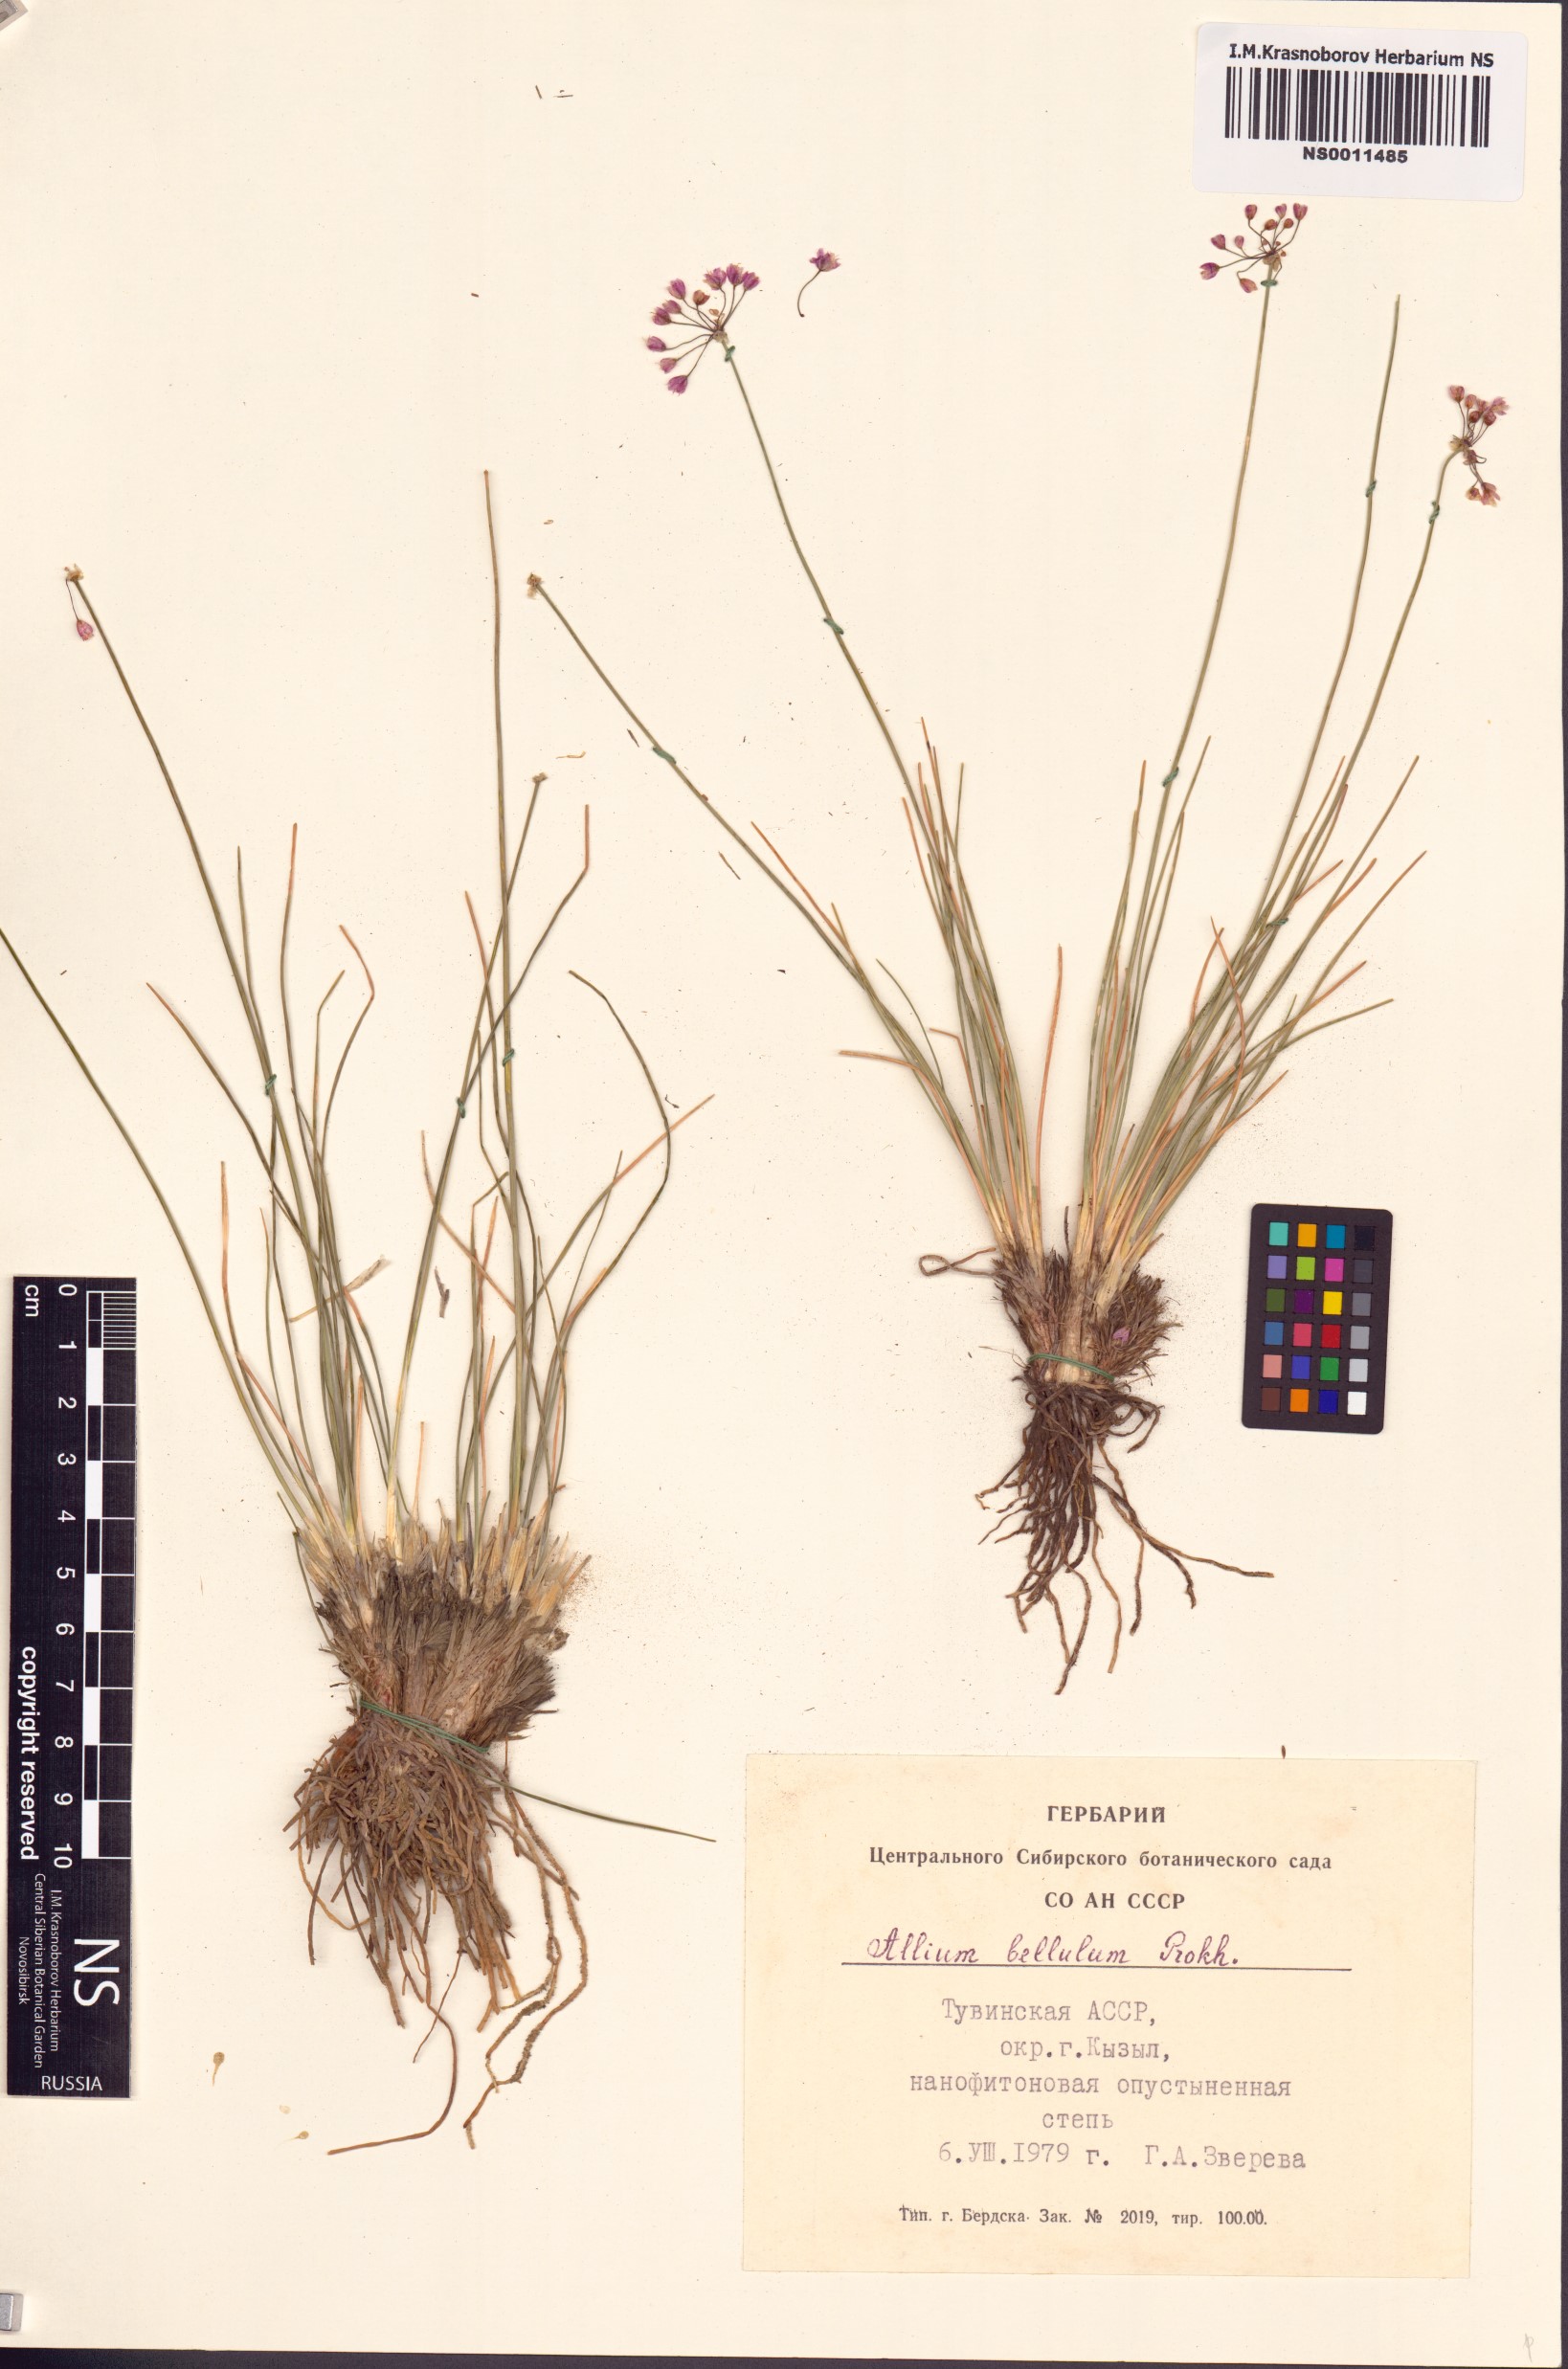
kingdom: Plantae
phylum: Tracheophyta
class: Liliopsida
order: Asparagales
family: Amaryllidaceae
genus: Allium
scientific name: Allium bellulum
